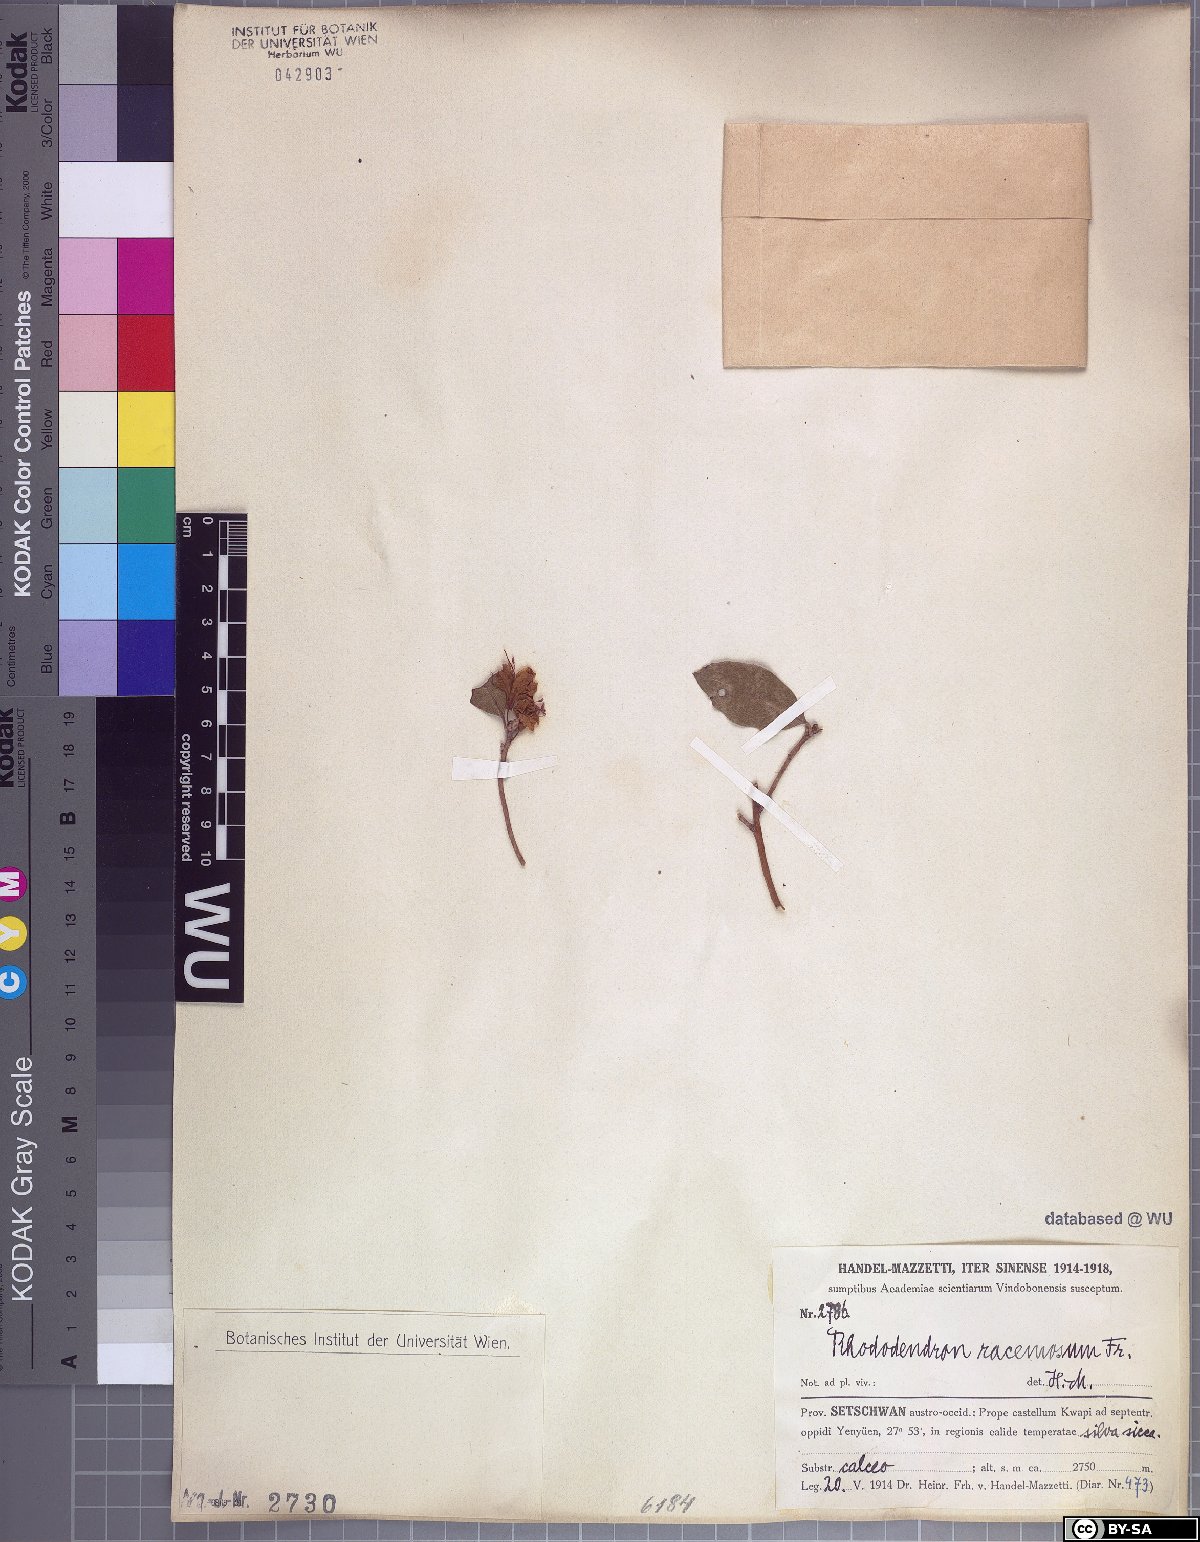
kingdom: Plantae
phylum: Tracheophyta
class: Magnoliopsida
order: Ericales
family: Ericaceae
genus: Rhododendron
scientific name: Rhododendron racemosum
